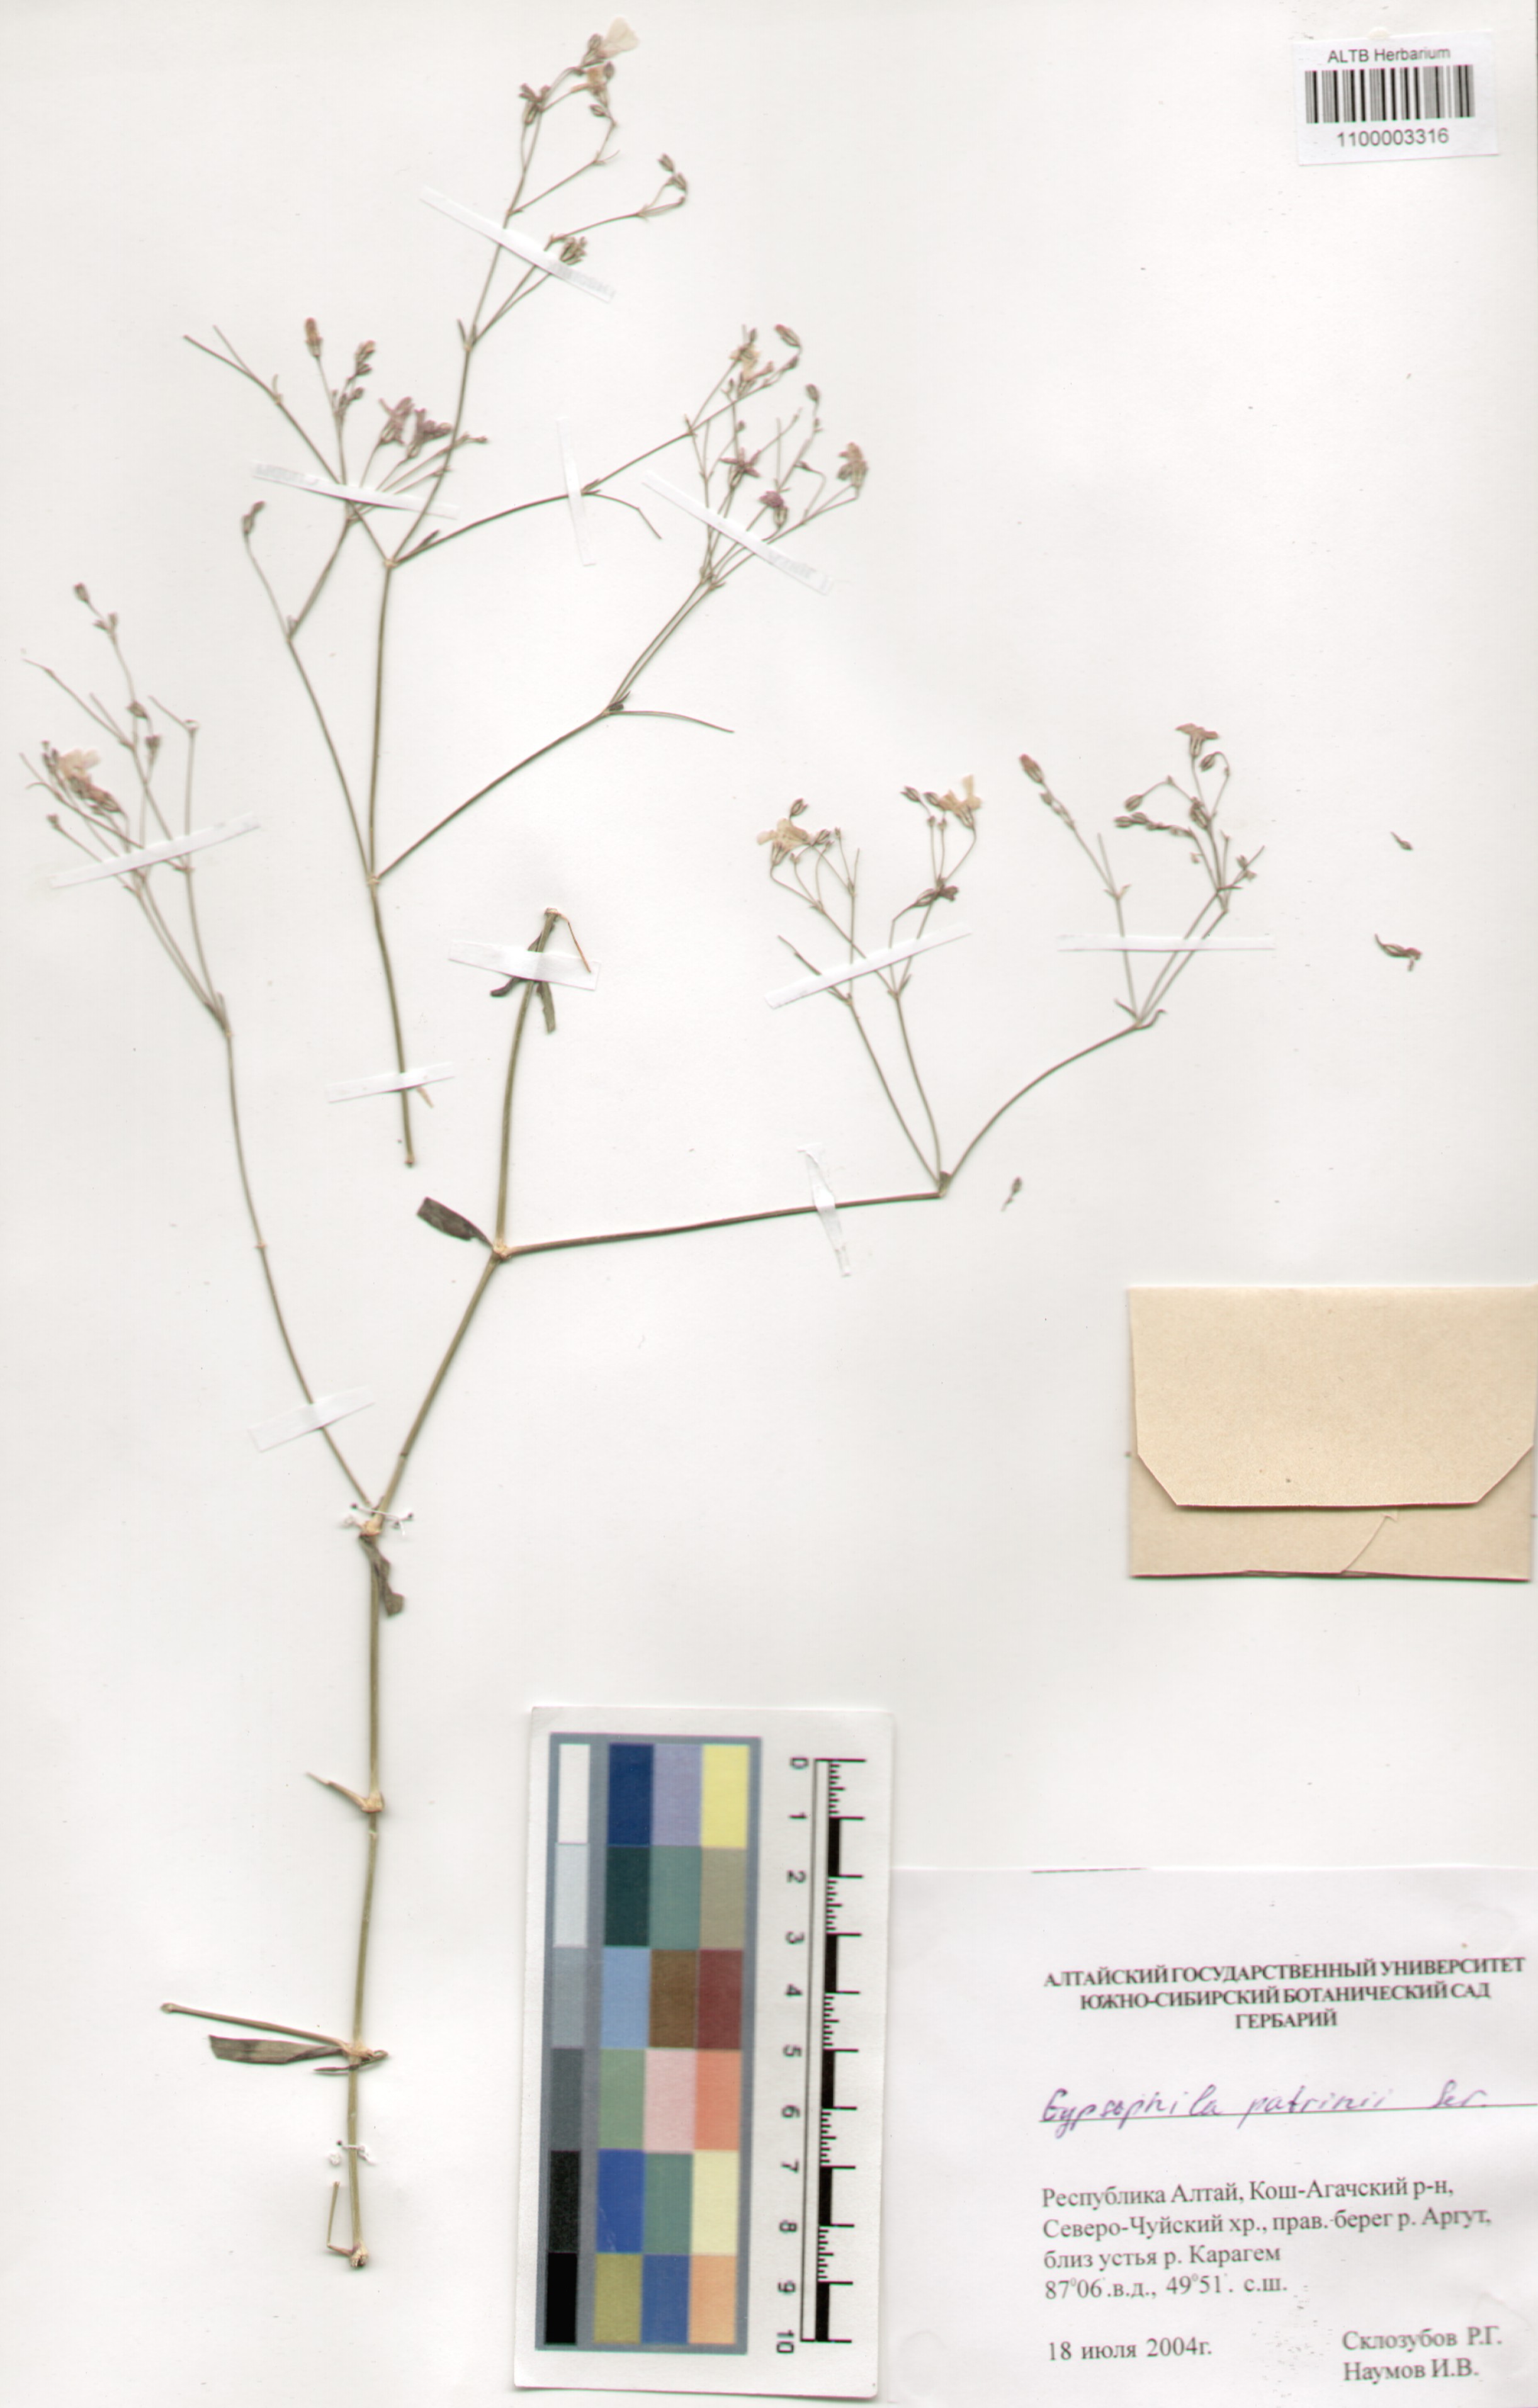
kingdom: Plantae
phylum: Tracheophyta
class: Magnoliopsida
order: Caryophyllales
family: Caryophyllaceae
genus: Gypsophila
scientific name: Gypsophila patrinii
